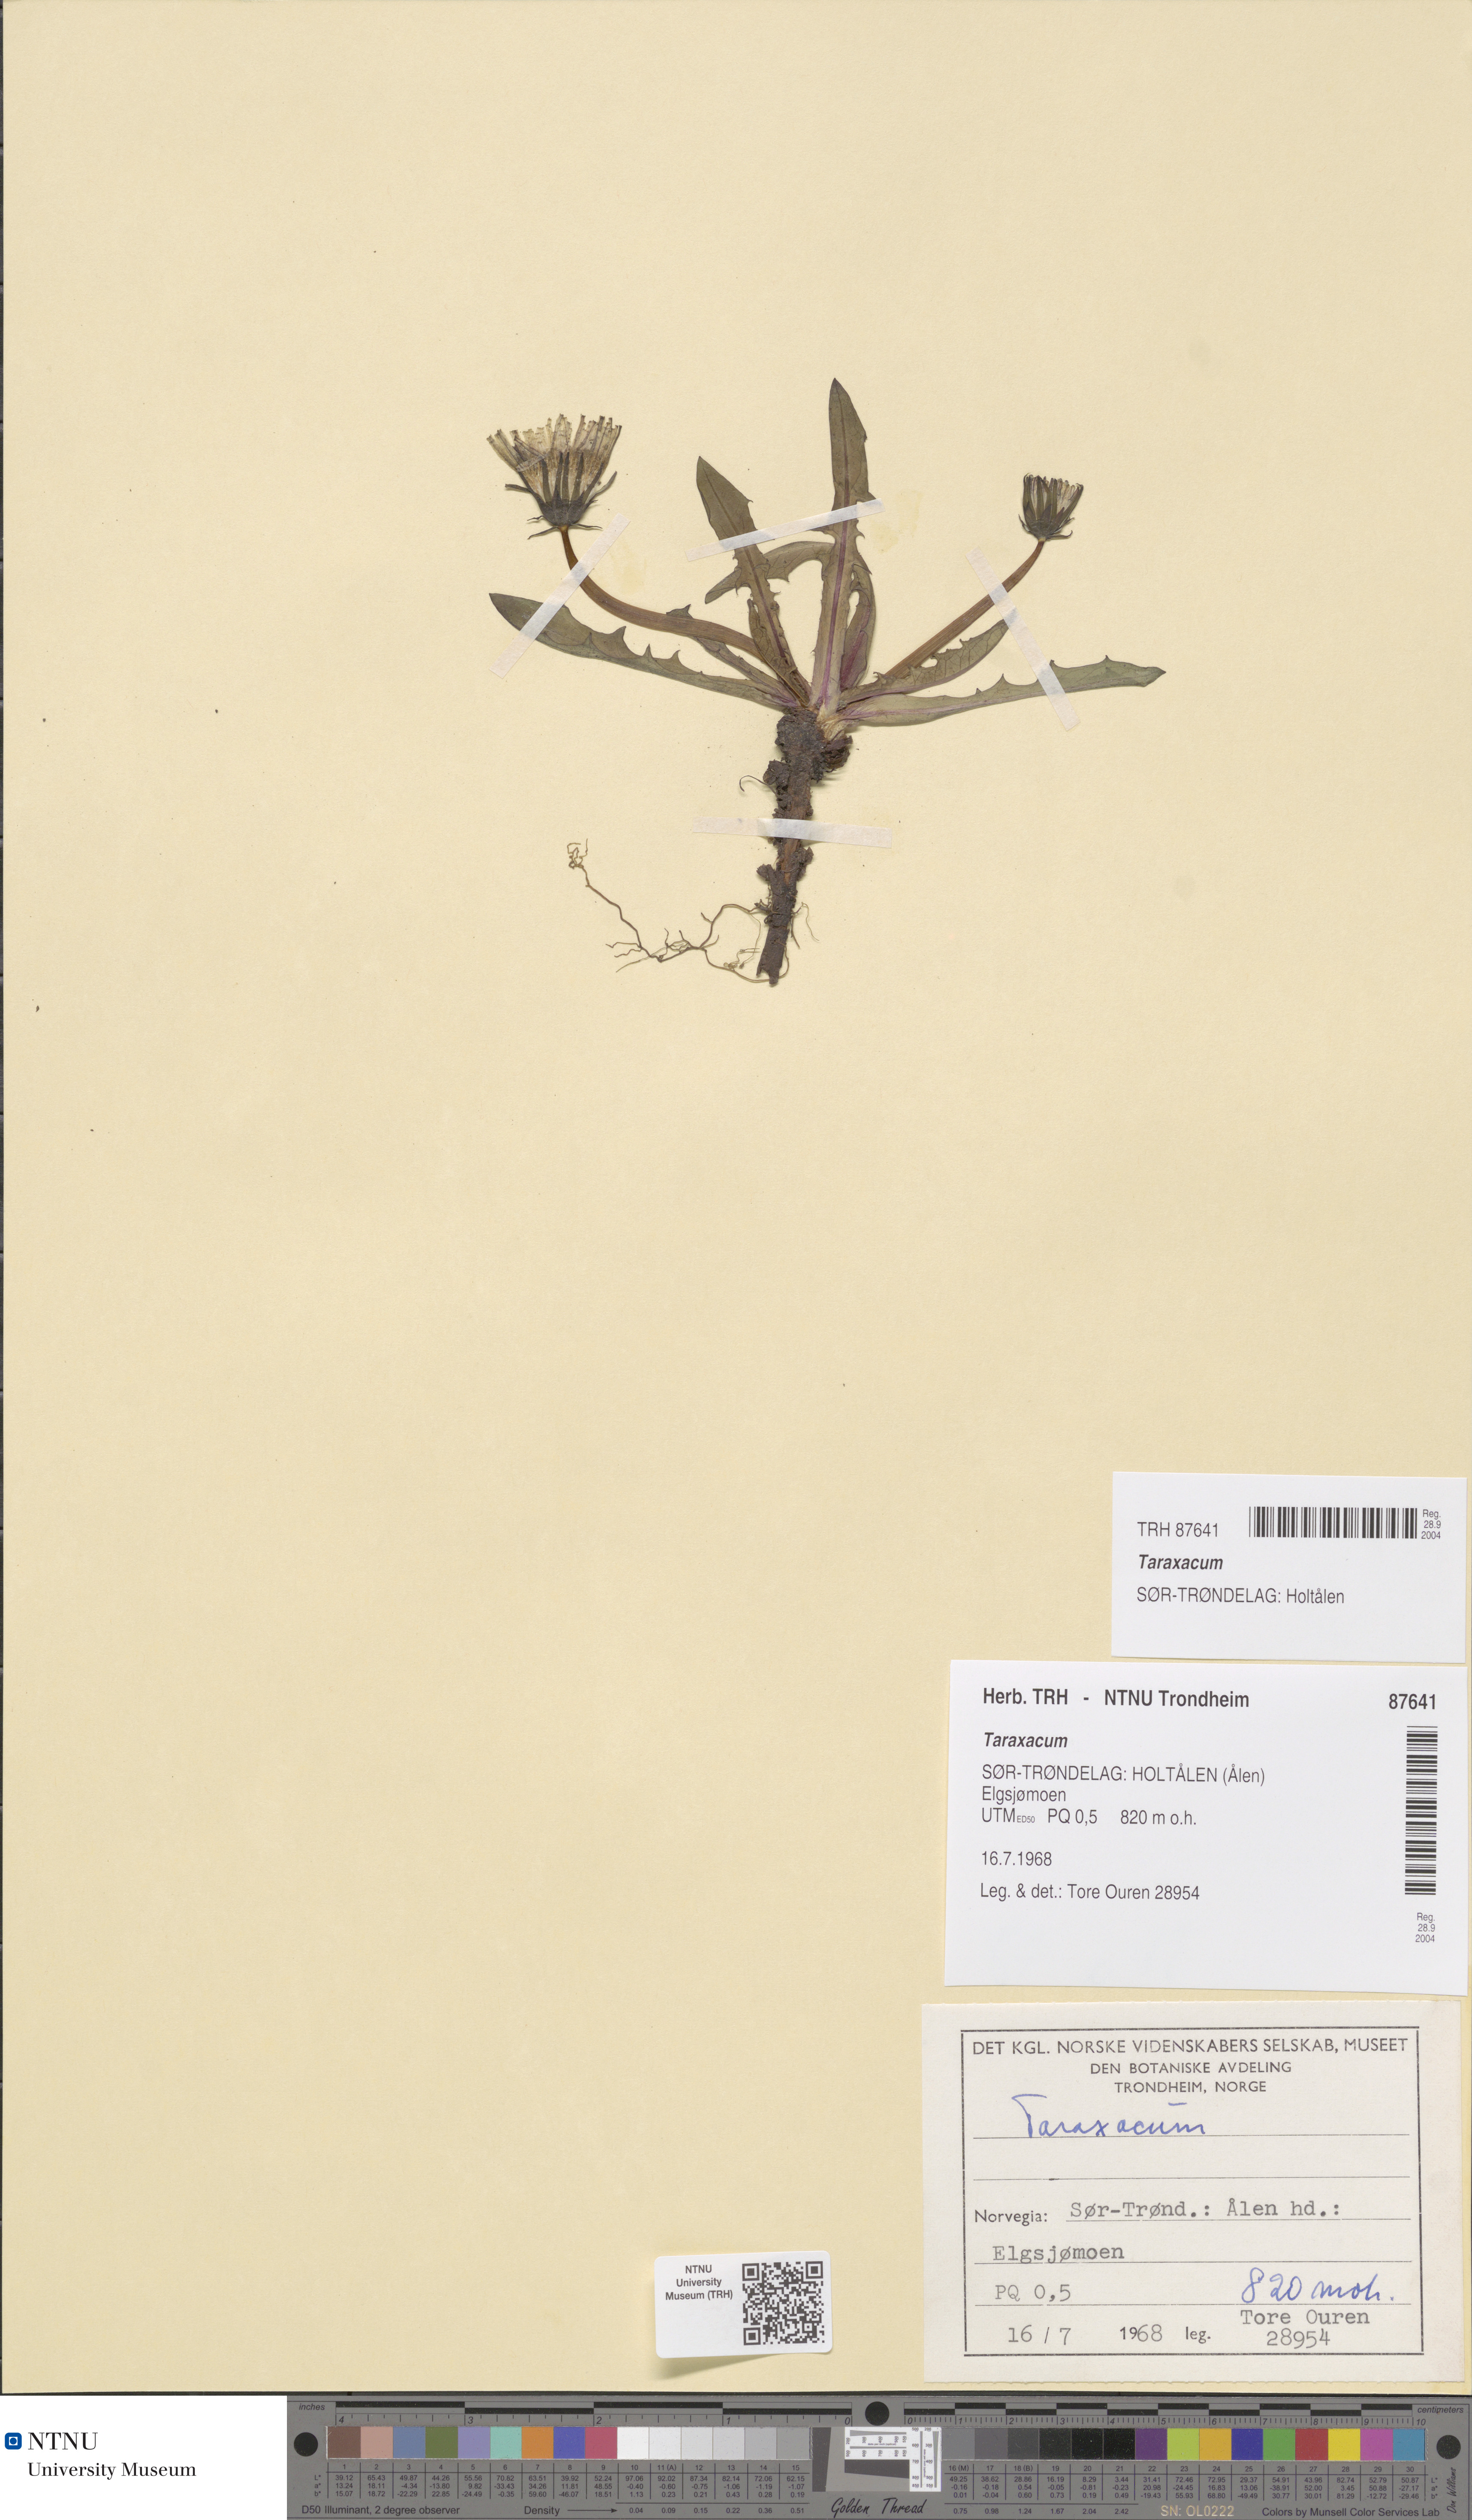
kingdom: Plantae
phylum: Tracheophyta
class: Magnoliopsida
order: Asterales
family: Asteraceae
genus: Taraxacum
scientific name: Taraxacum
